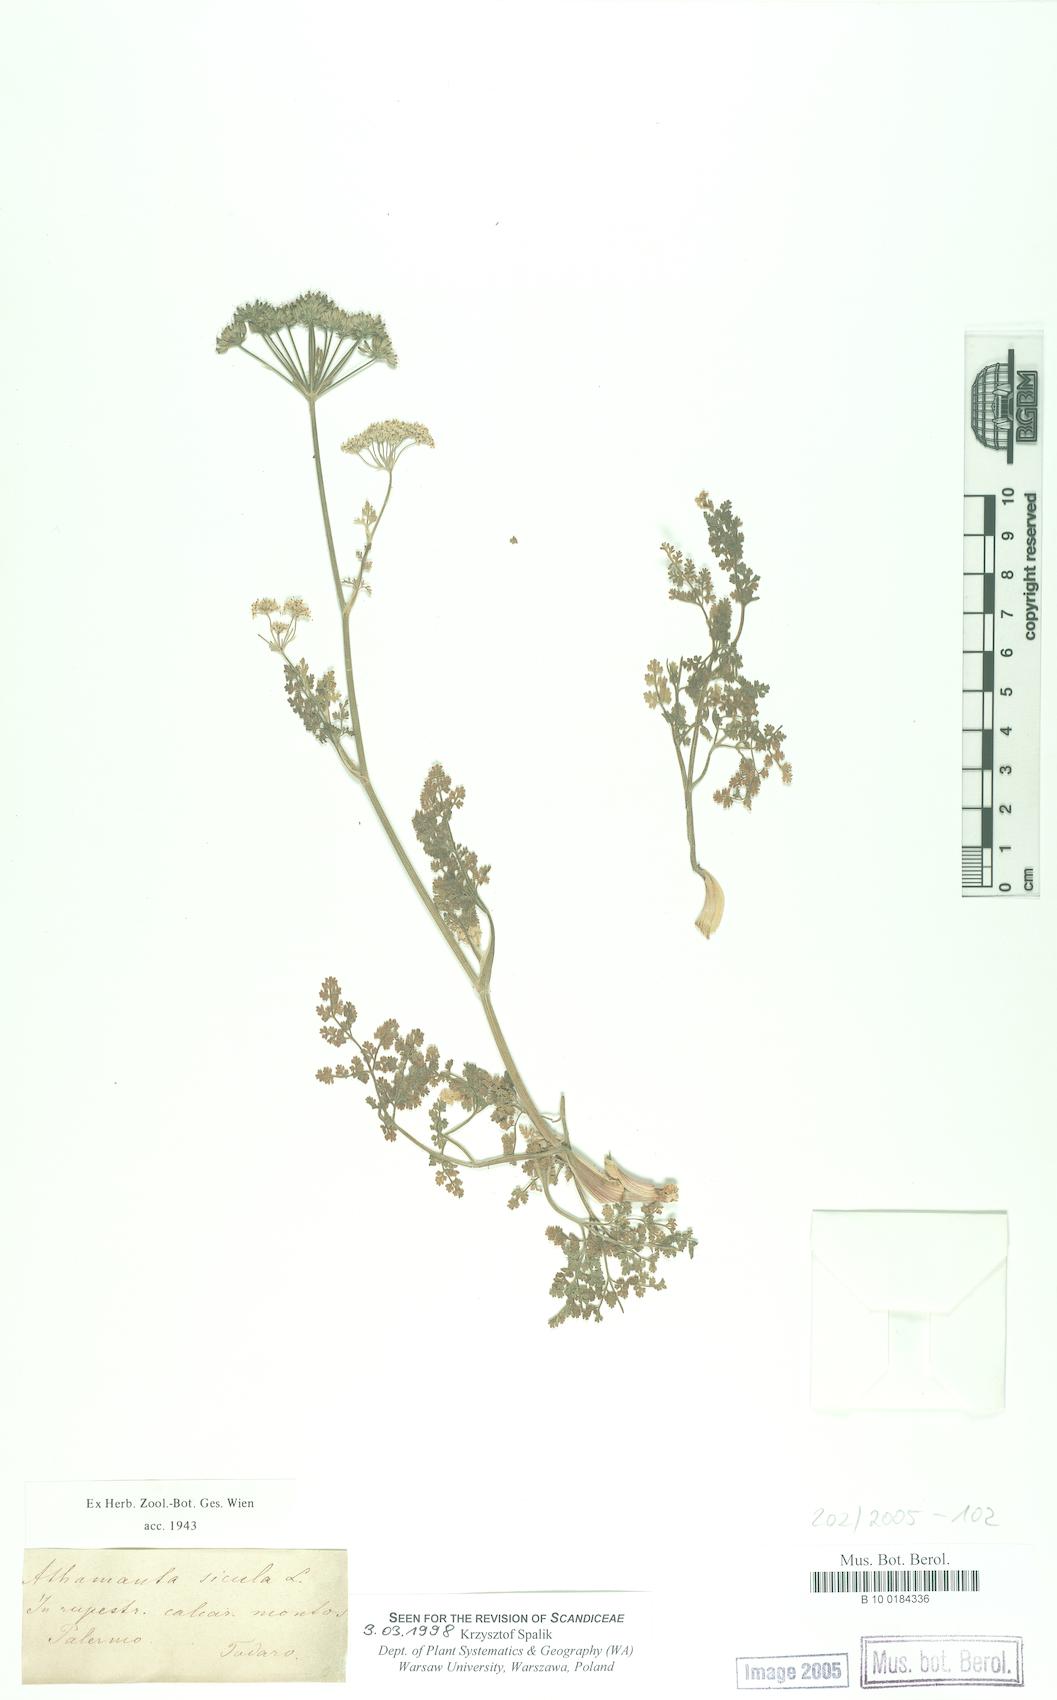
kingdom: Plantae
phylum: Tracheophyta
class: Magnoliopsida
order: Apiales
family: Apiaceae
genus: Athamanta
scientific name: Athamanta sicula
